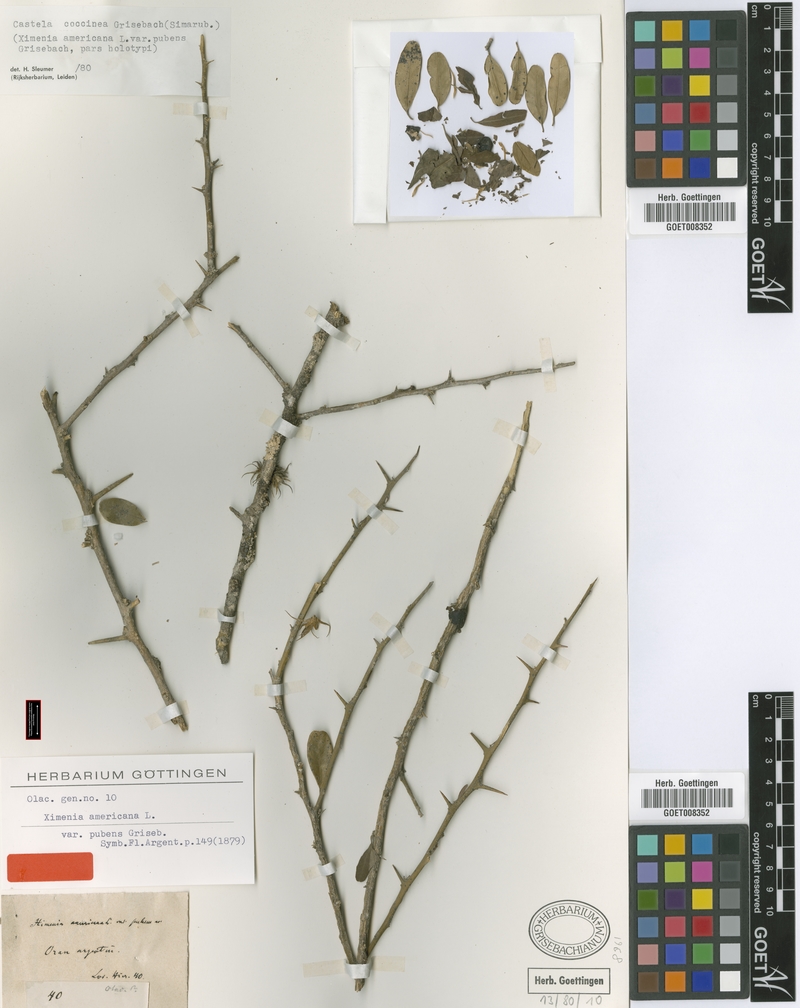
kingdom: Plantae
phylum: Tracheophyta
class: Magnoliopsida
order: Sapindales
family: Simaroubaceae
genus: Castela
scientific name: Castela coccinea
